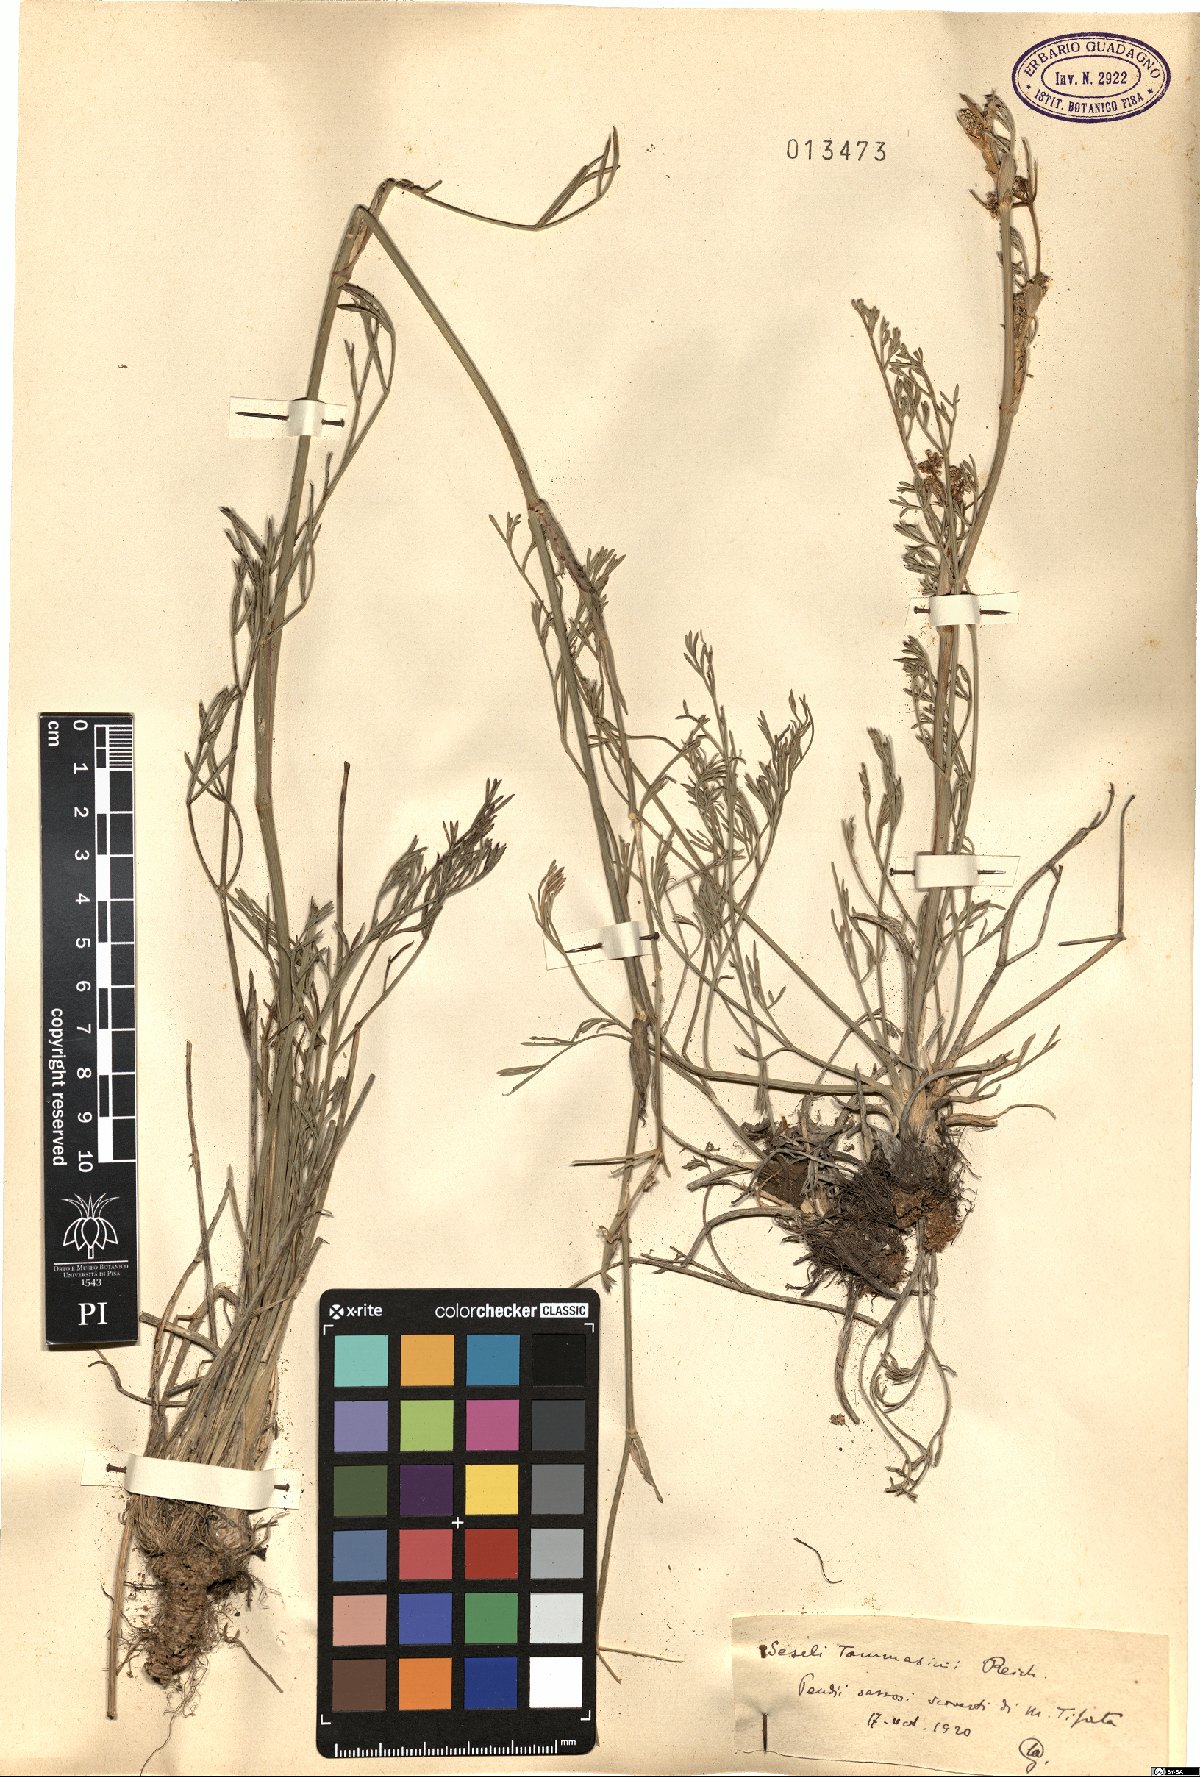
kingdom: Plantae
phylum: Tracheophyta
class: Magnoliopsida
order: Apiales
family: Apiaceae
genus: Seseli
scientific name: Seseli montanum
